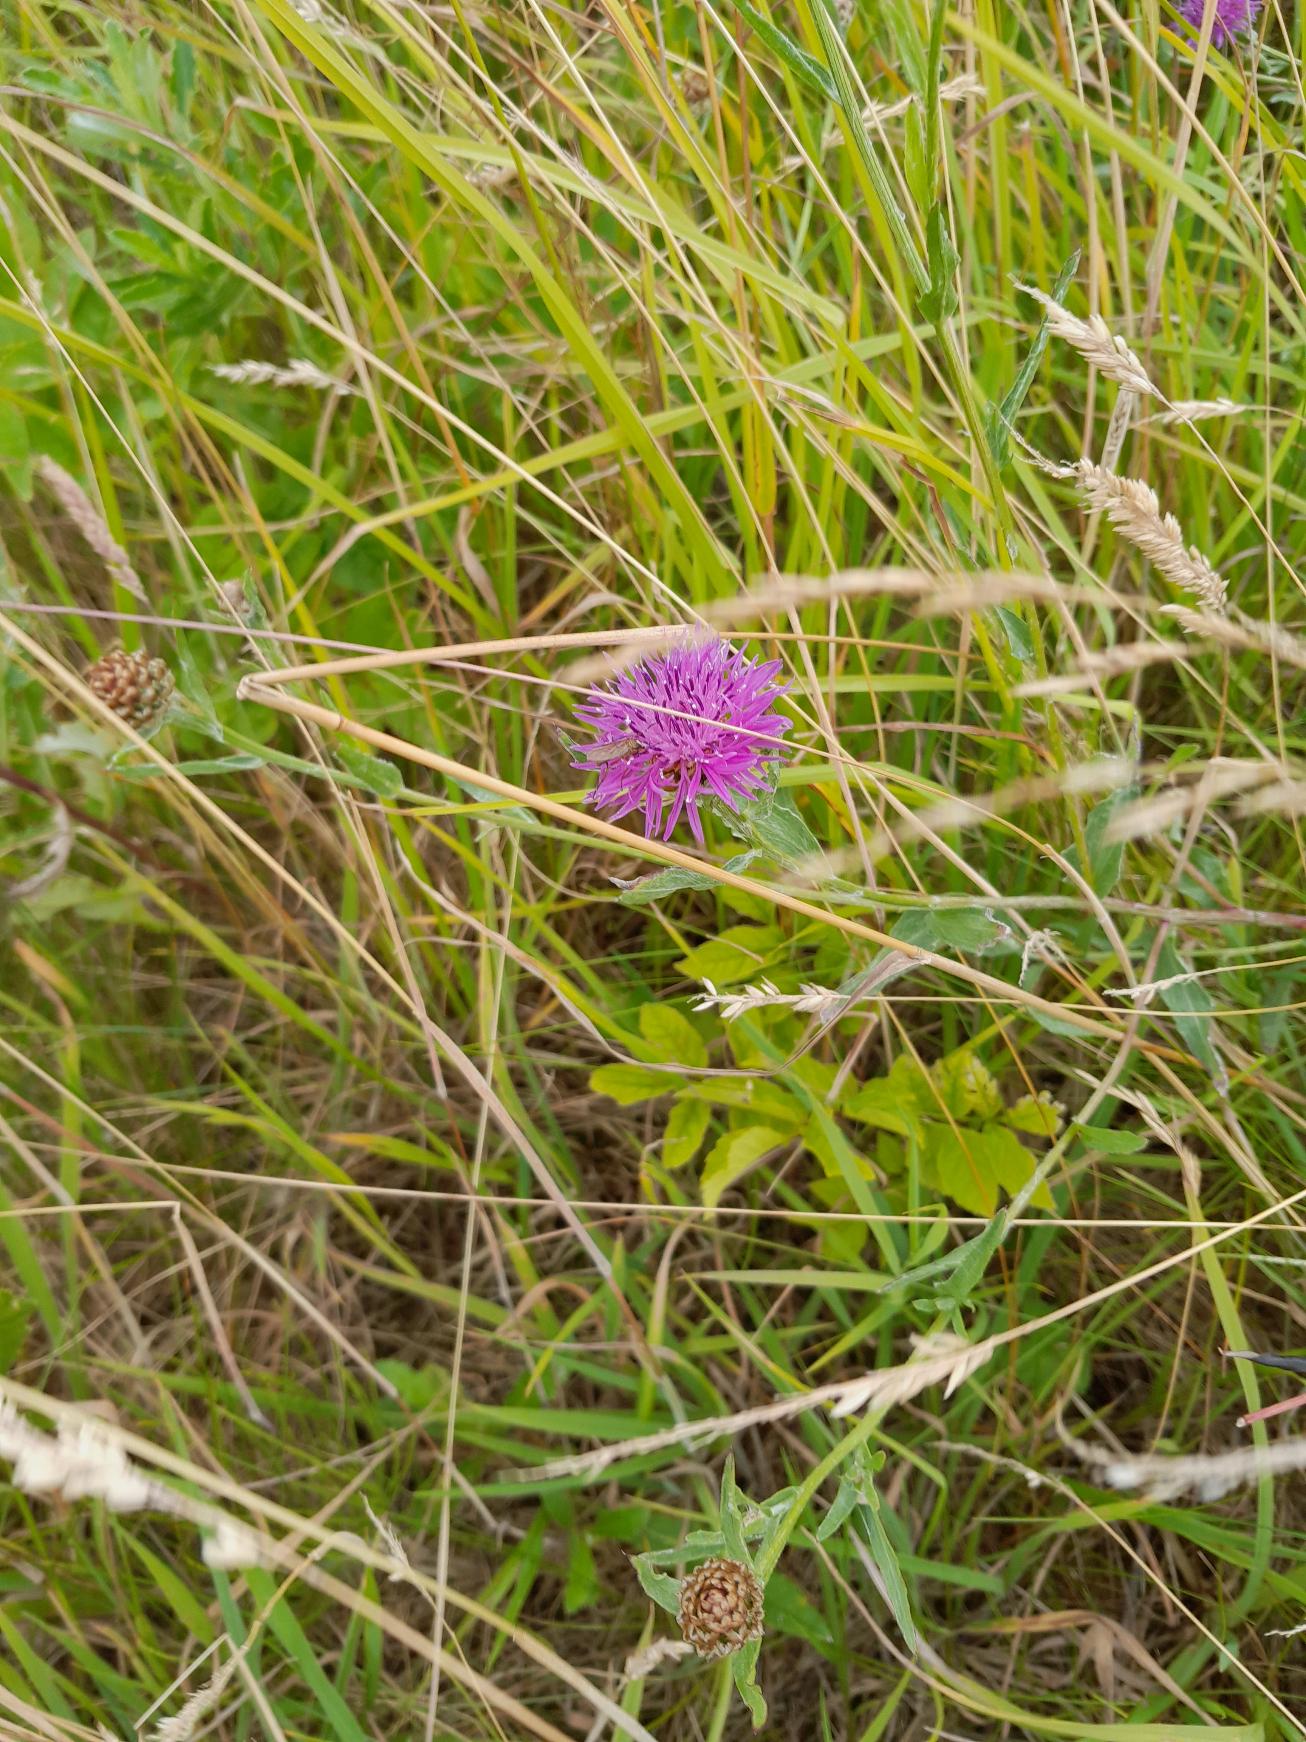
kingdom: Plantae
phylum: Tracheophyta
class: Magnoliopsida
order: Asterales
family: Asteraceae
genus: Centaurea
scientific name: Centaurea jacea
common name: Almindelig knopurt
